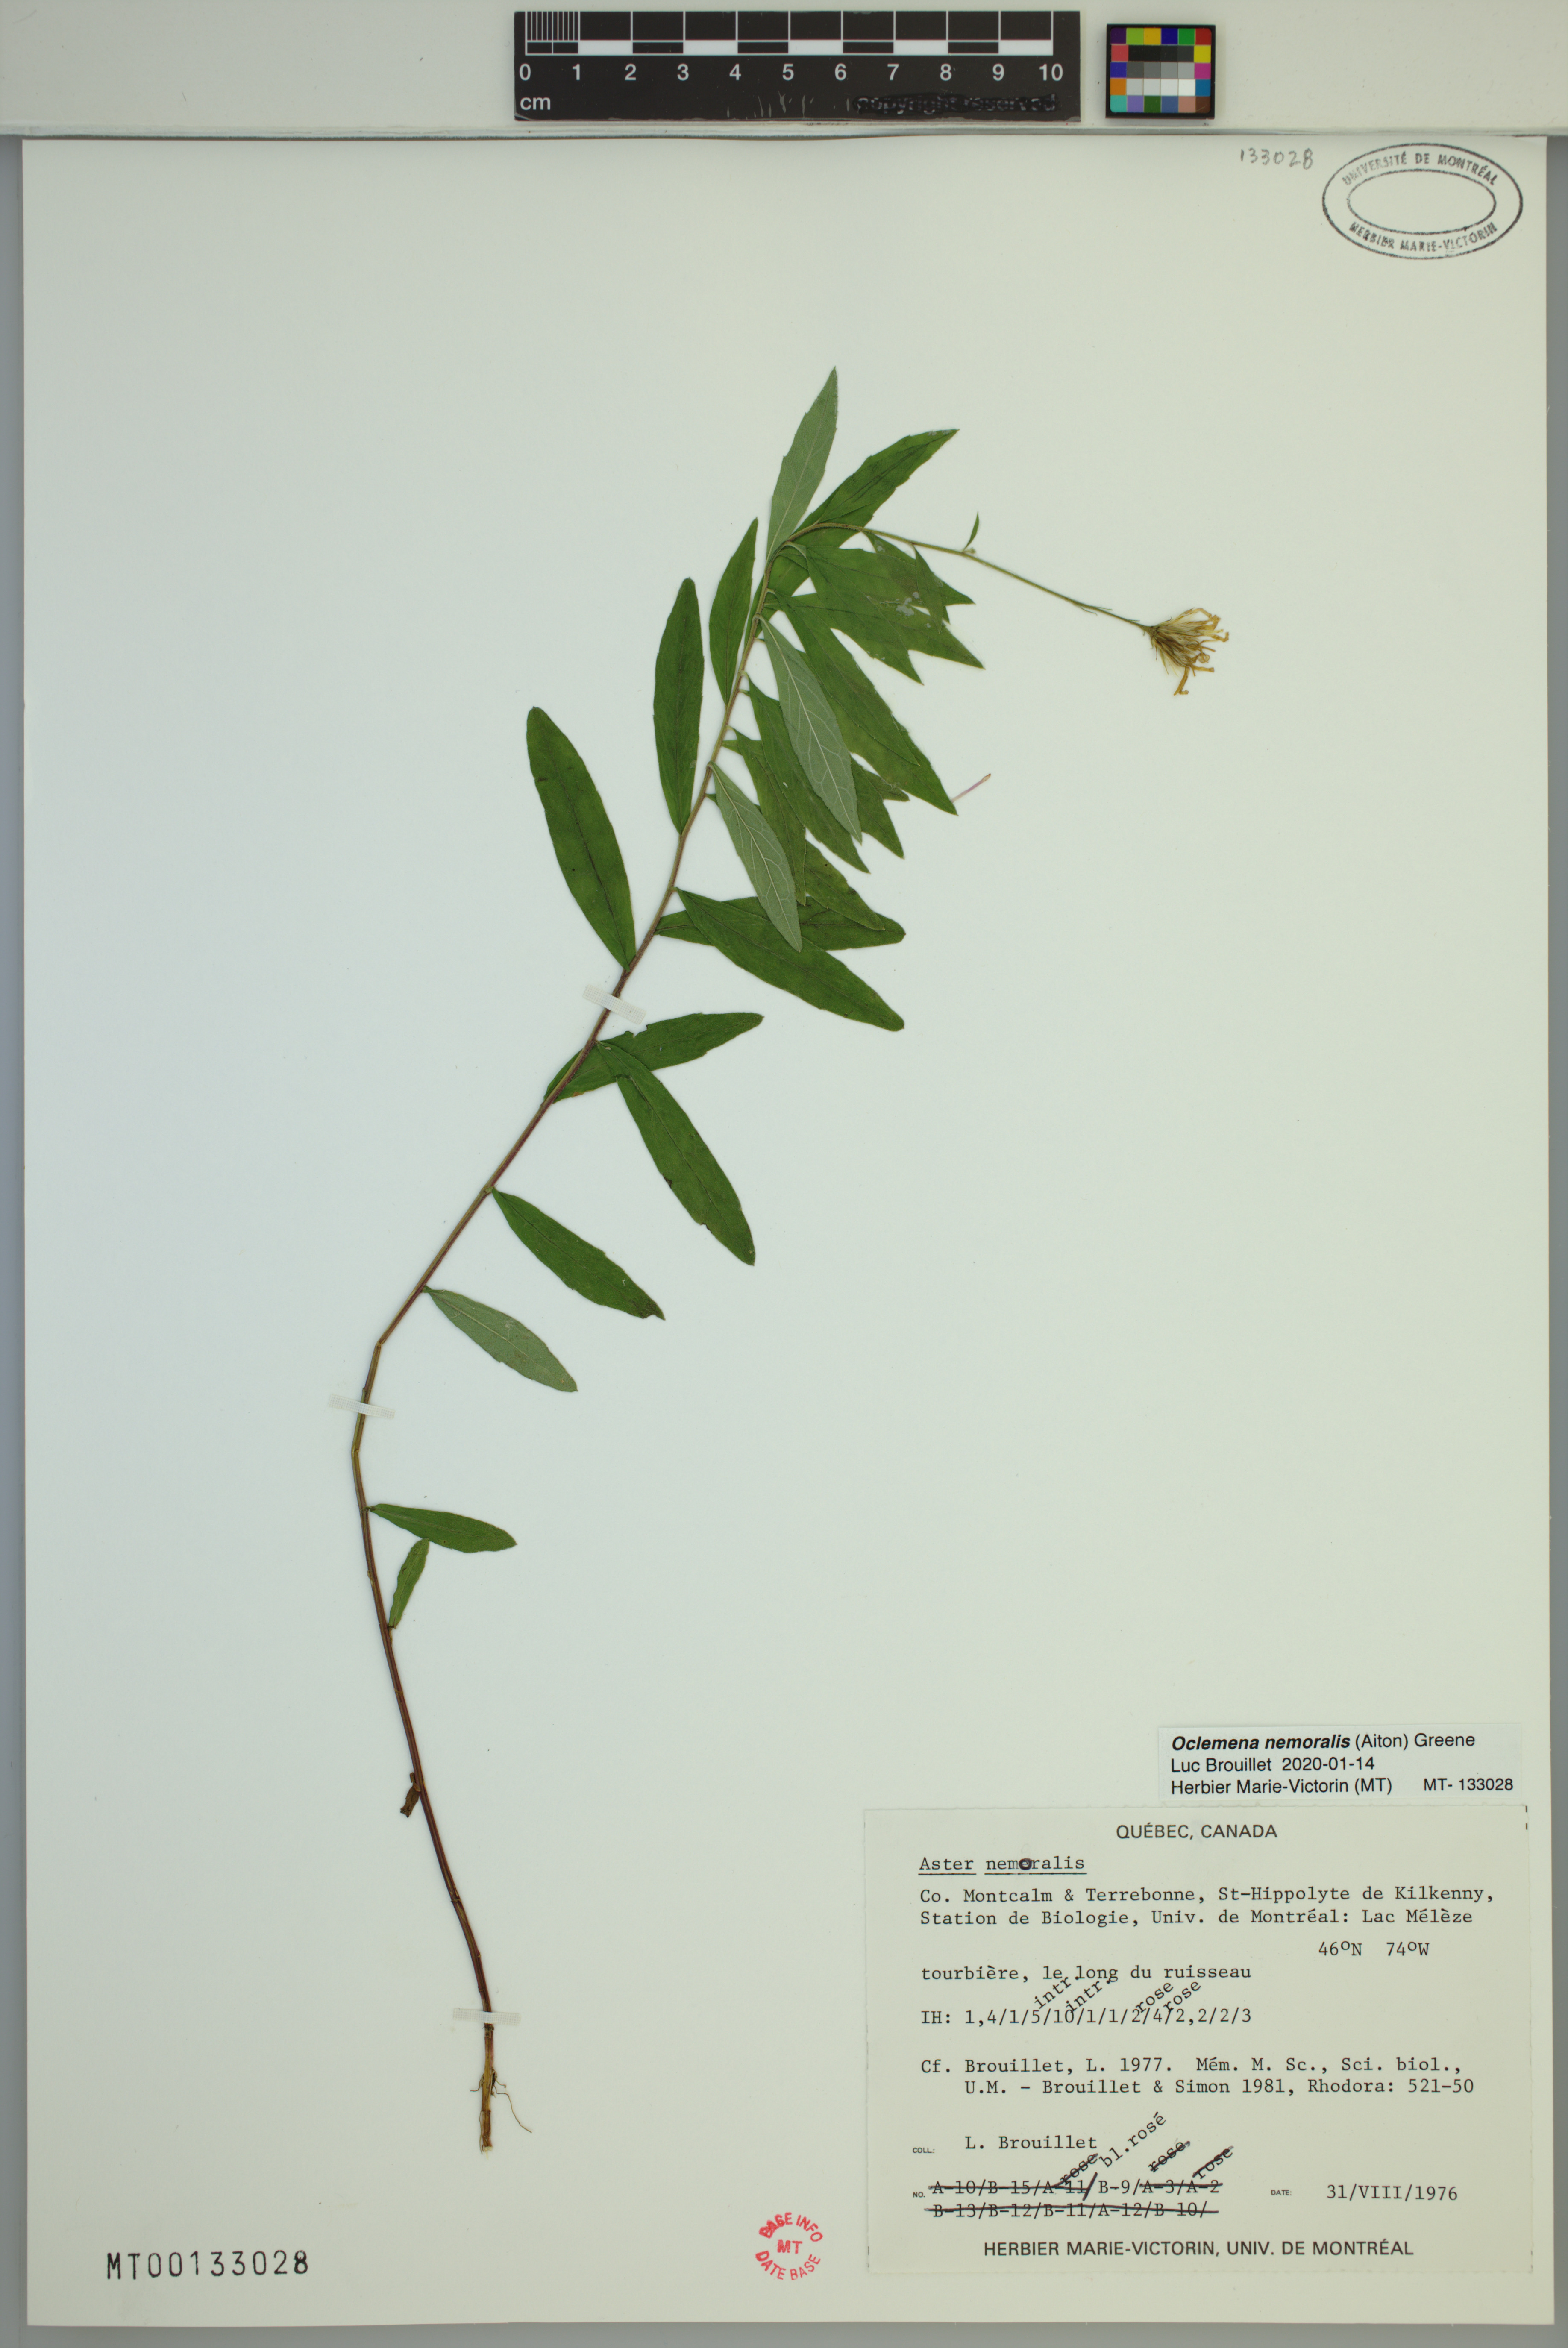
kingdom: Plantae
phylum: Tracheophyta
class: Magnoliopsida
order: Asterales
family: Asteraceae
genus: Oclemena
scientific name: Oclemena nemoralis
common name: Bog aster
